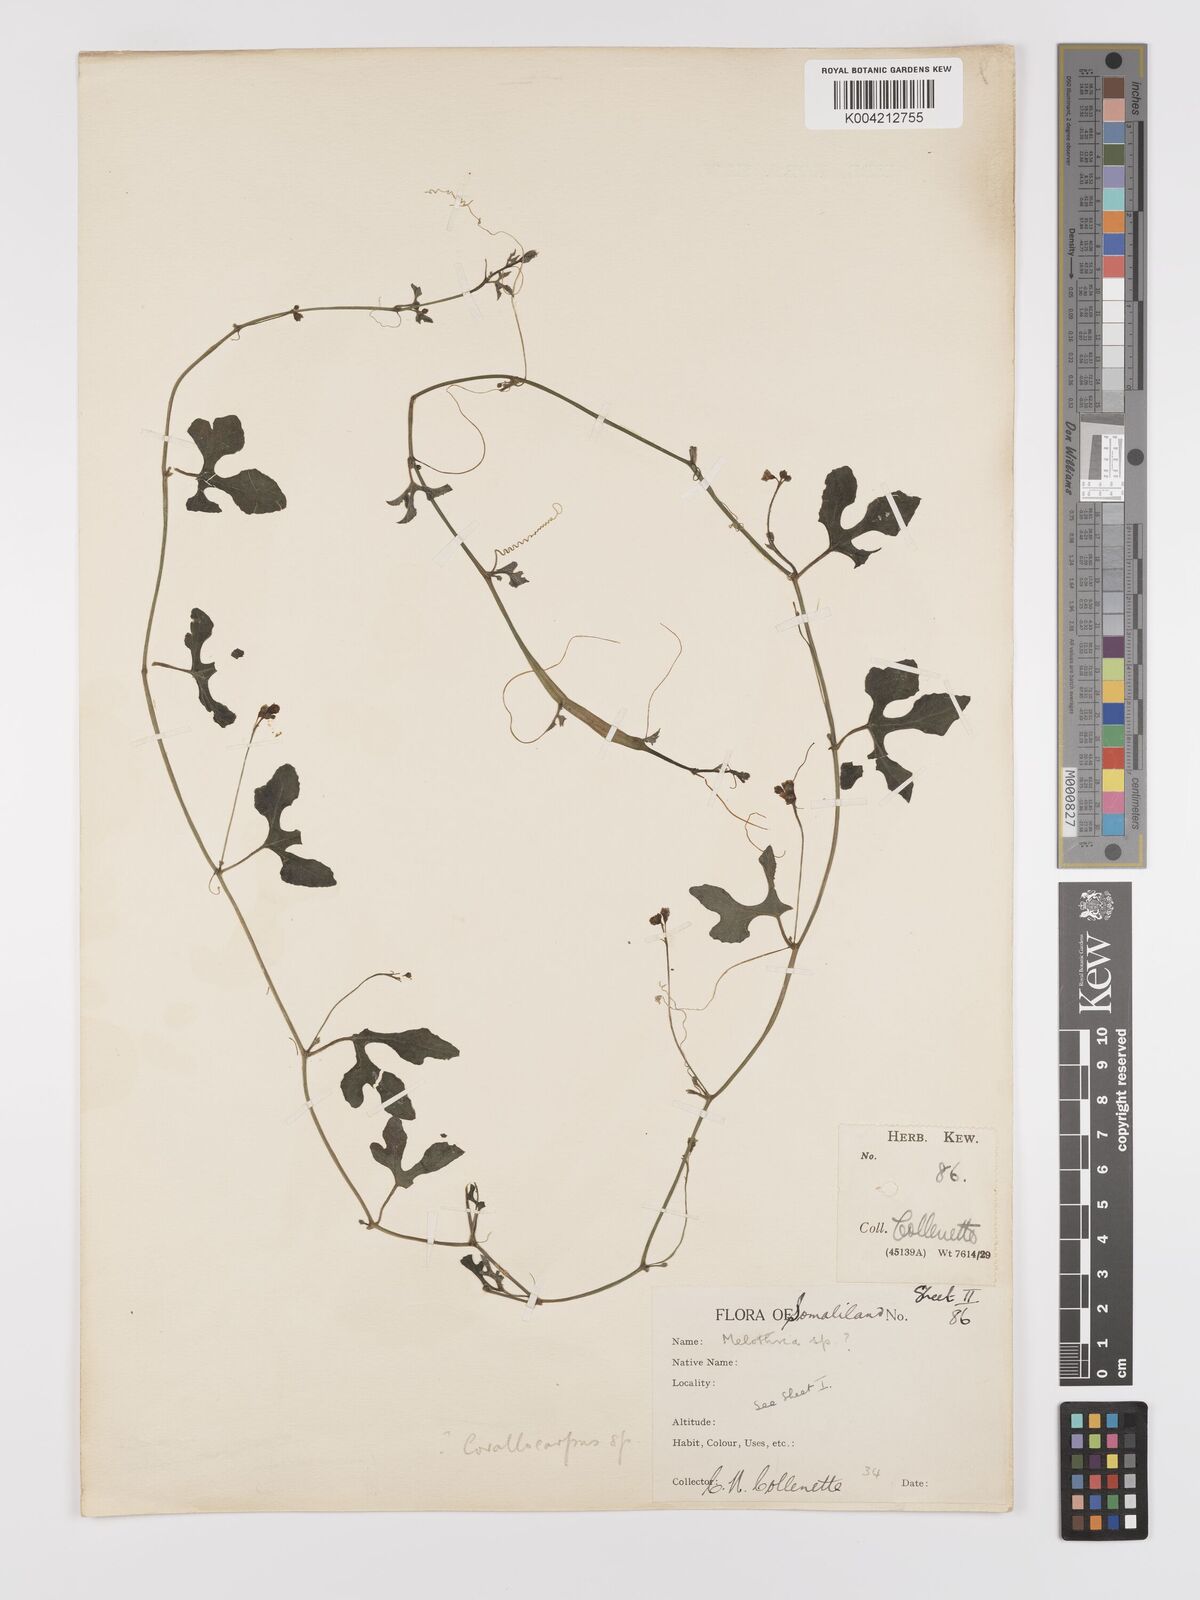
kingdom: Plantae
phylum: Tracheophyta
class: Magnoliopsida
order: Cucurbitales
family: Cucurbitaceae
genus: Corallocarpus
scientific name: Corallocarpus
